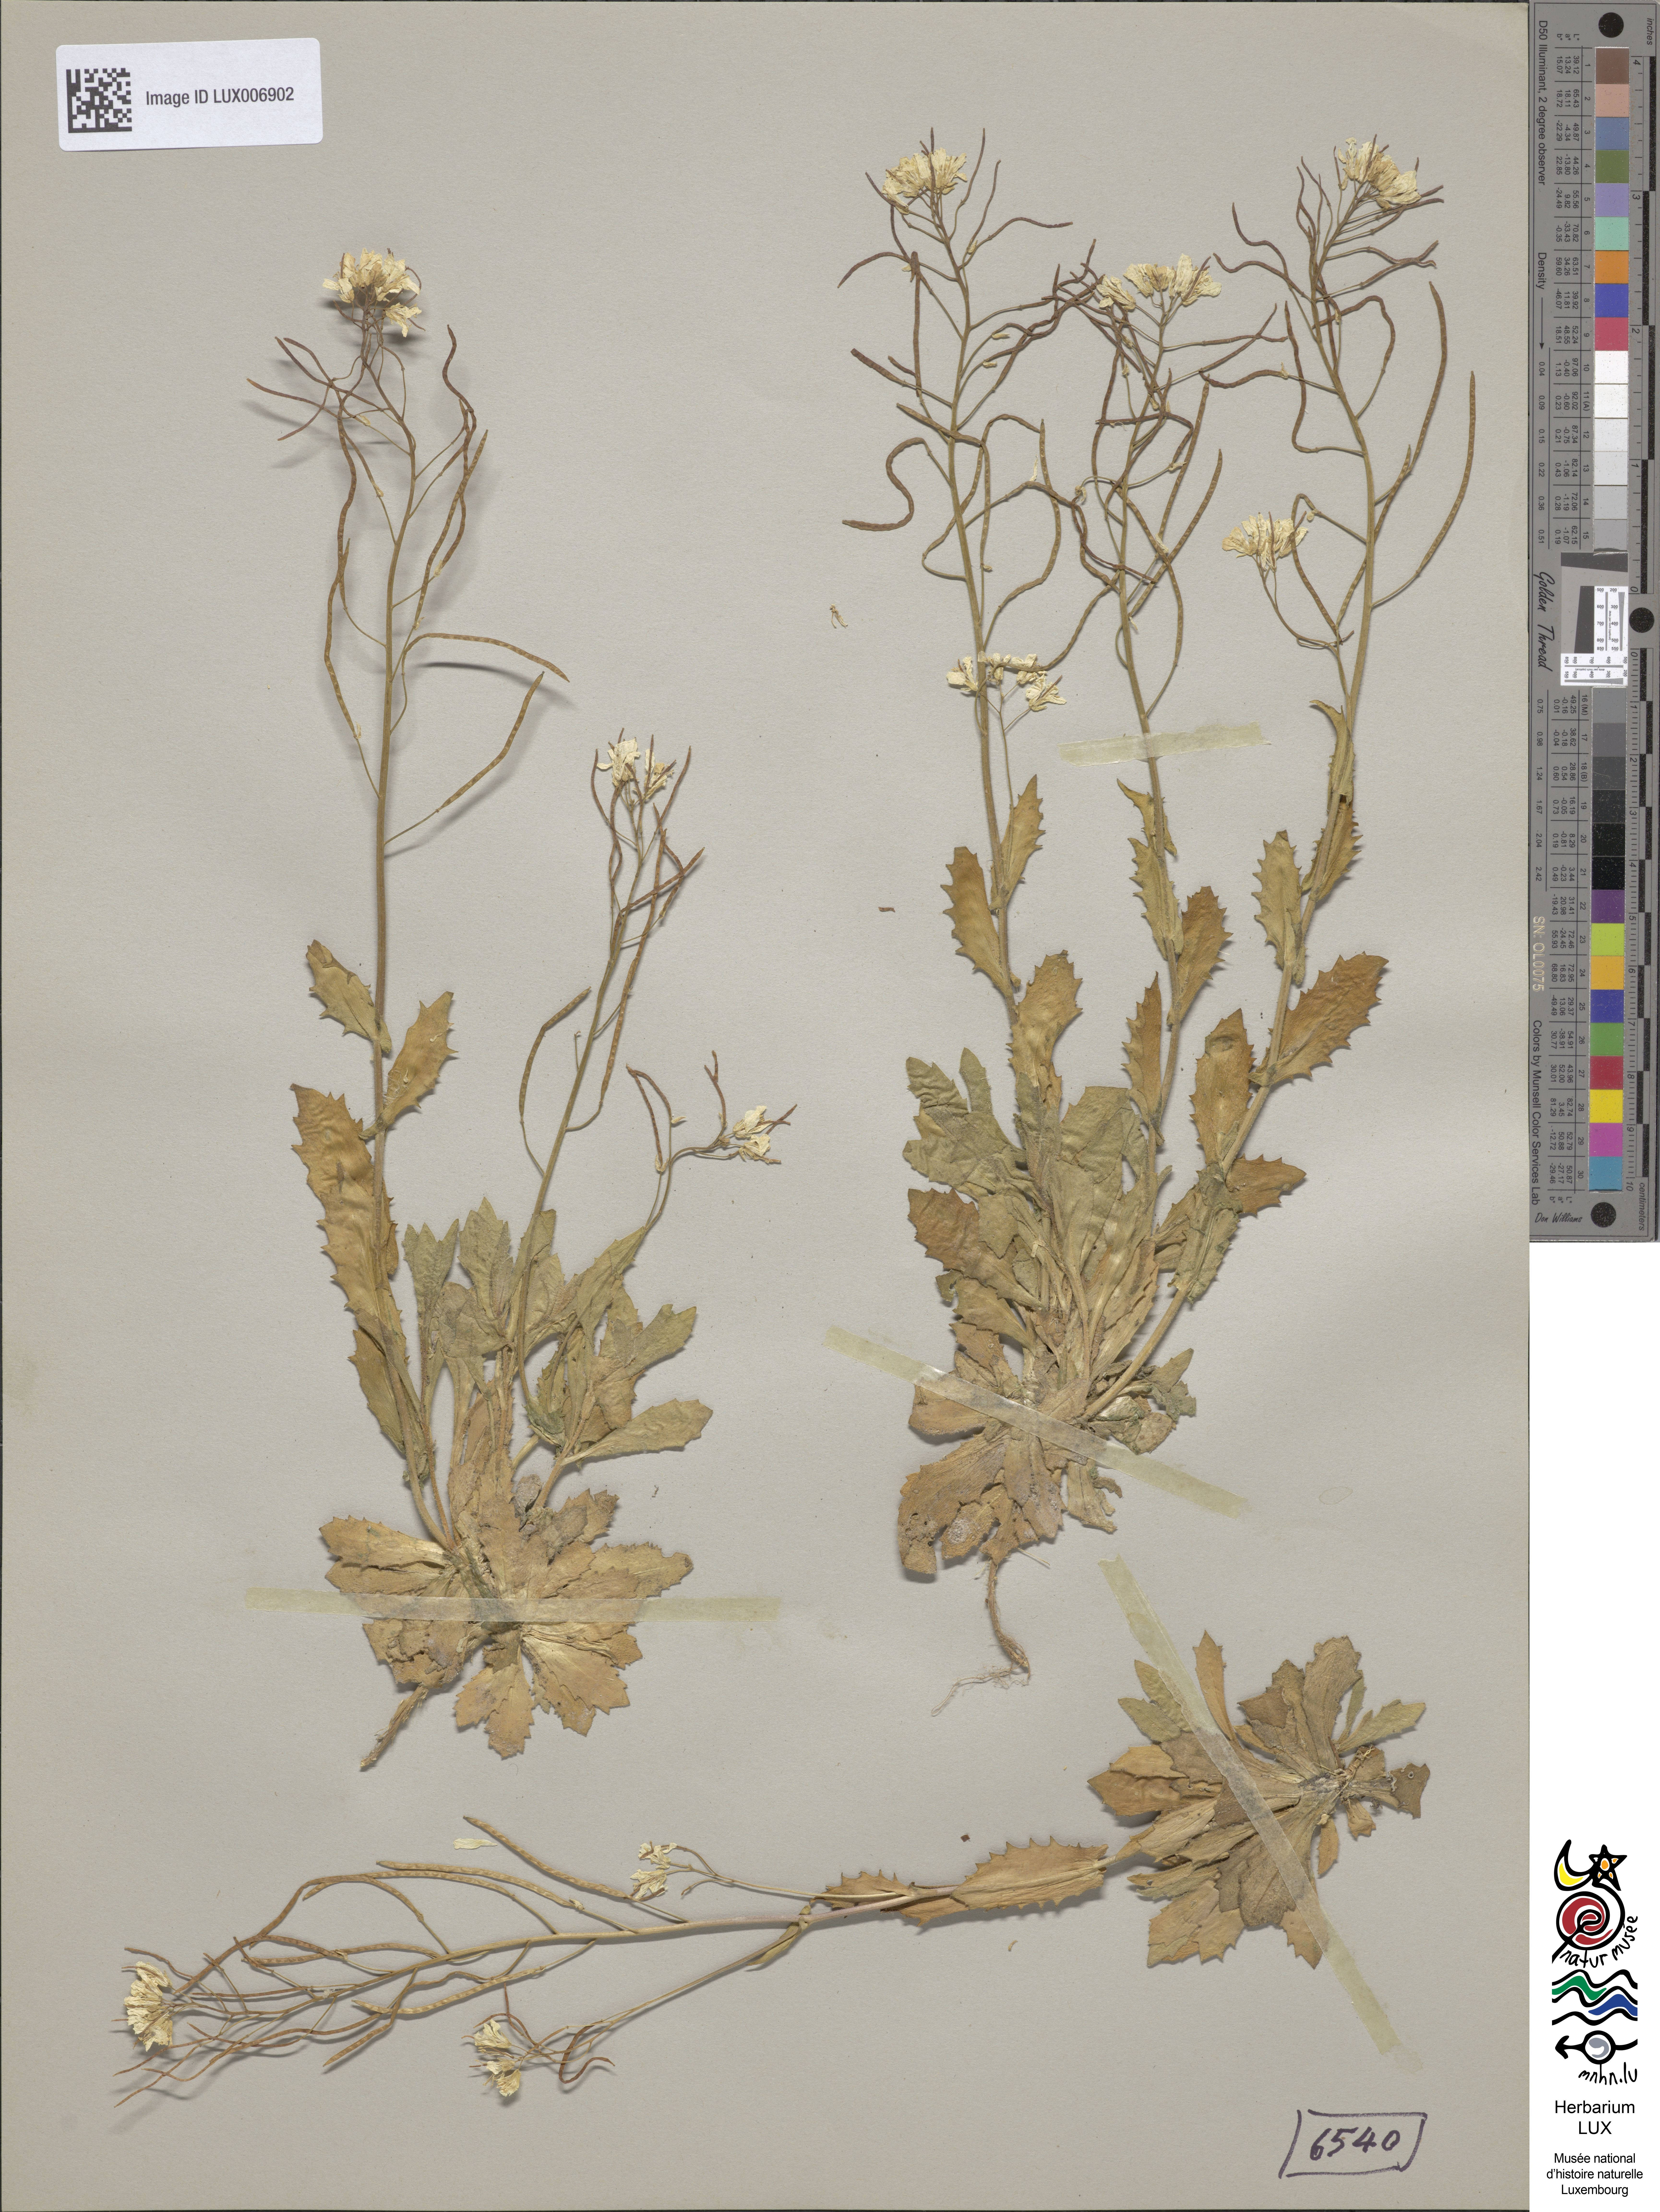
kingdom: Plantae
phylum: Tracheophyta
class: Magnoliopsida
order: Brassicales
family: Brassicaceae
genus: Arabis
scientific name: Arabis alpina
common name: Alpine rock-cress
